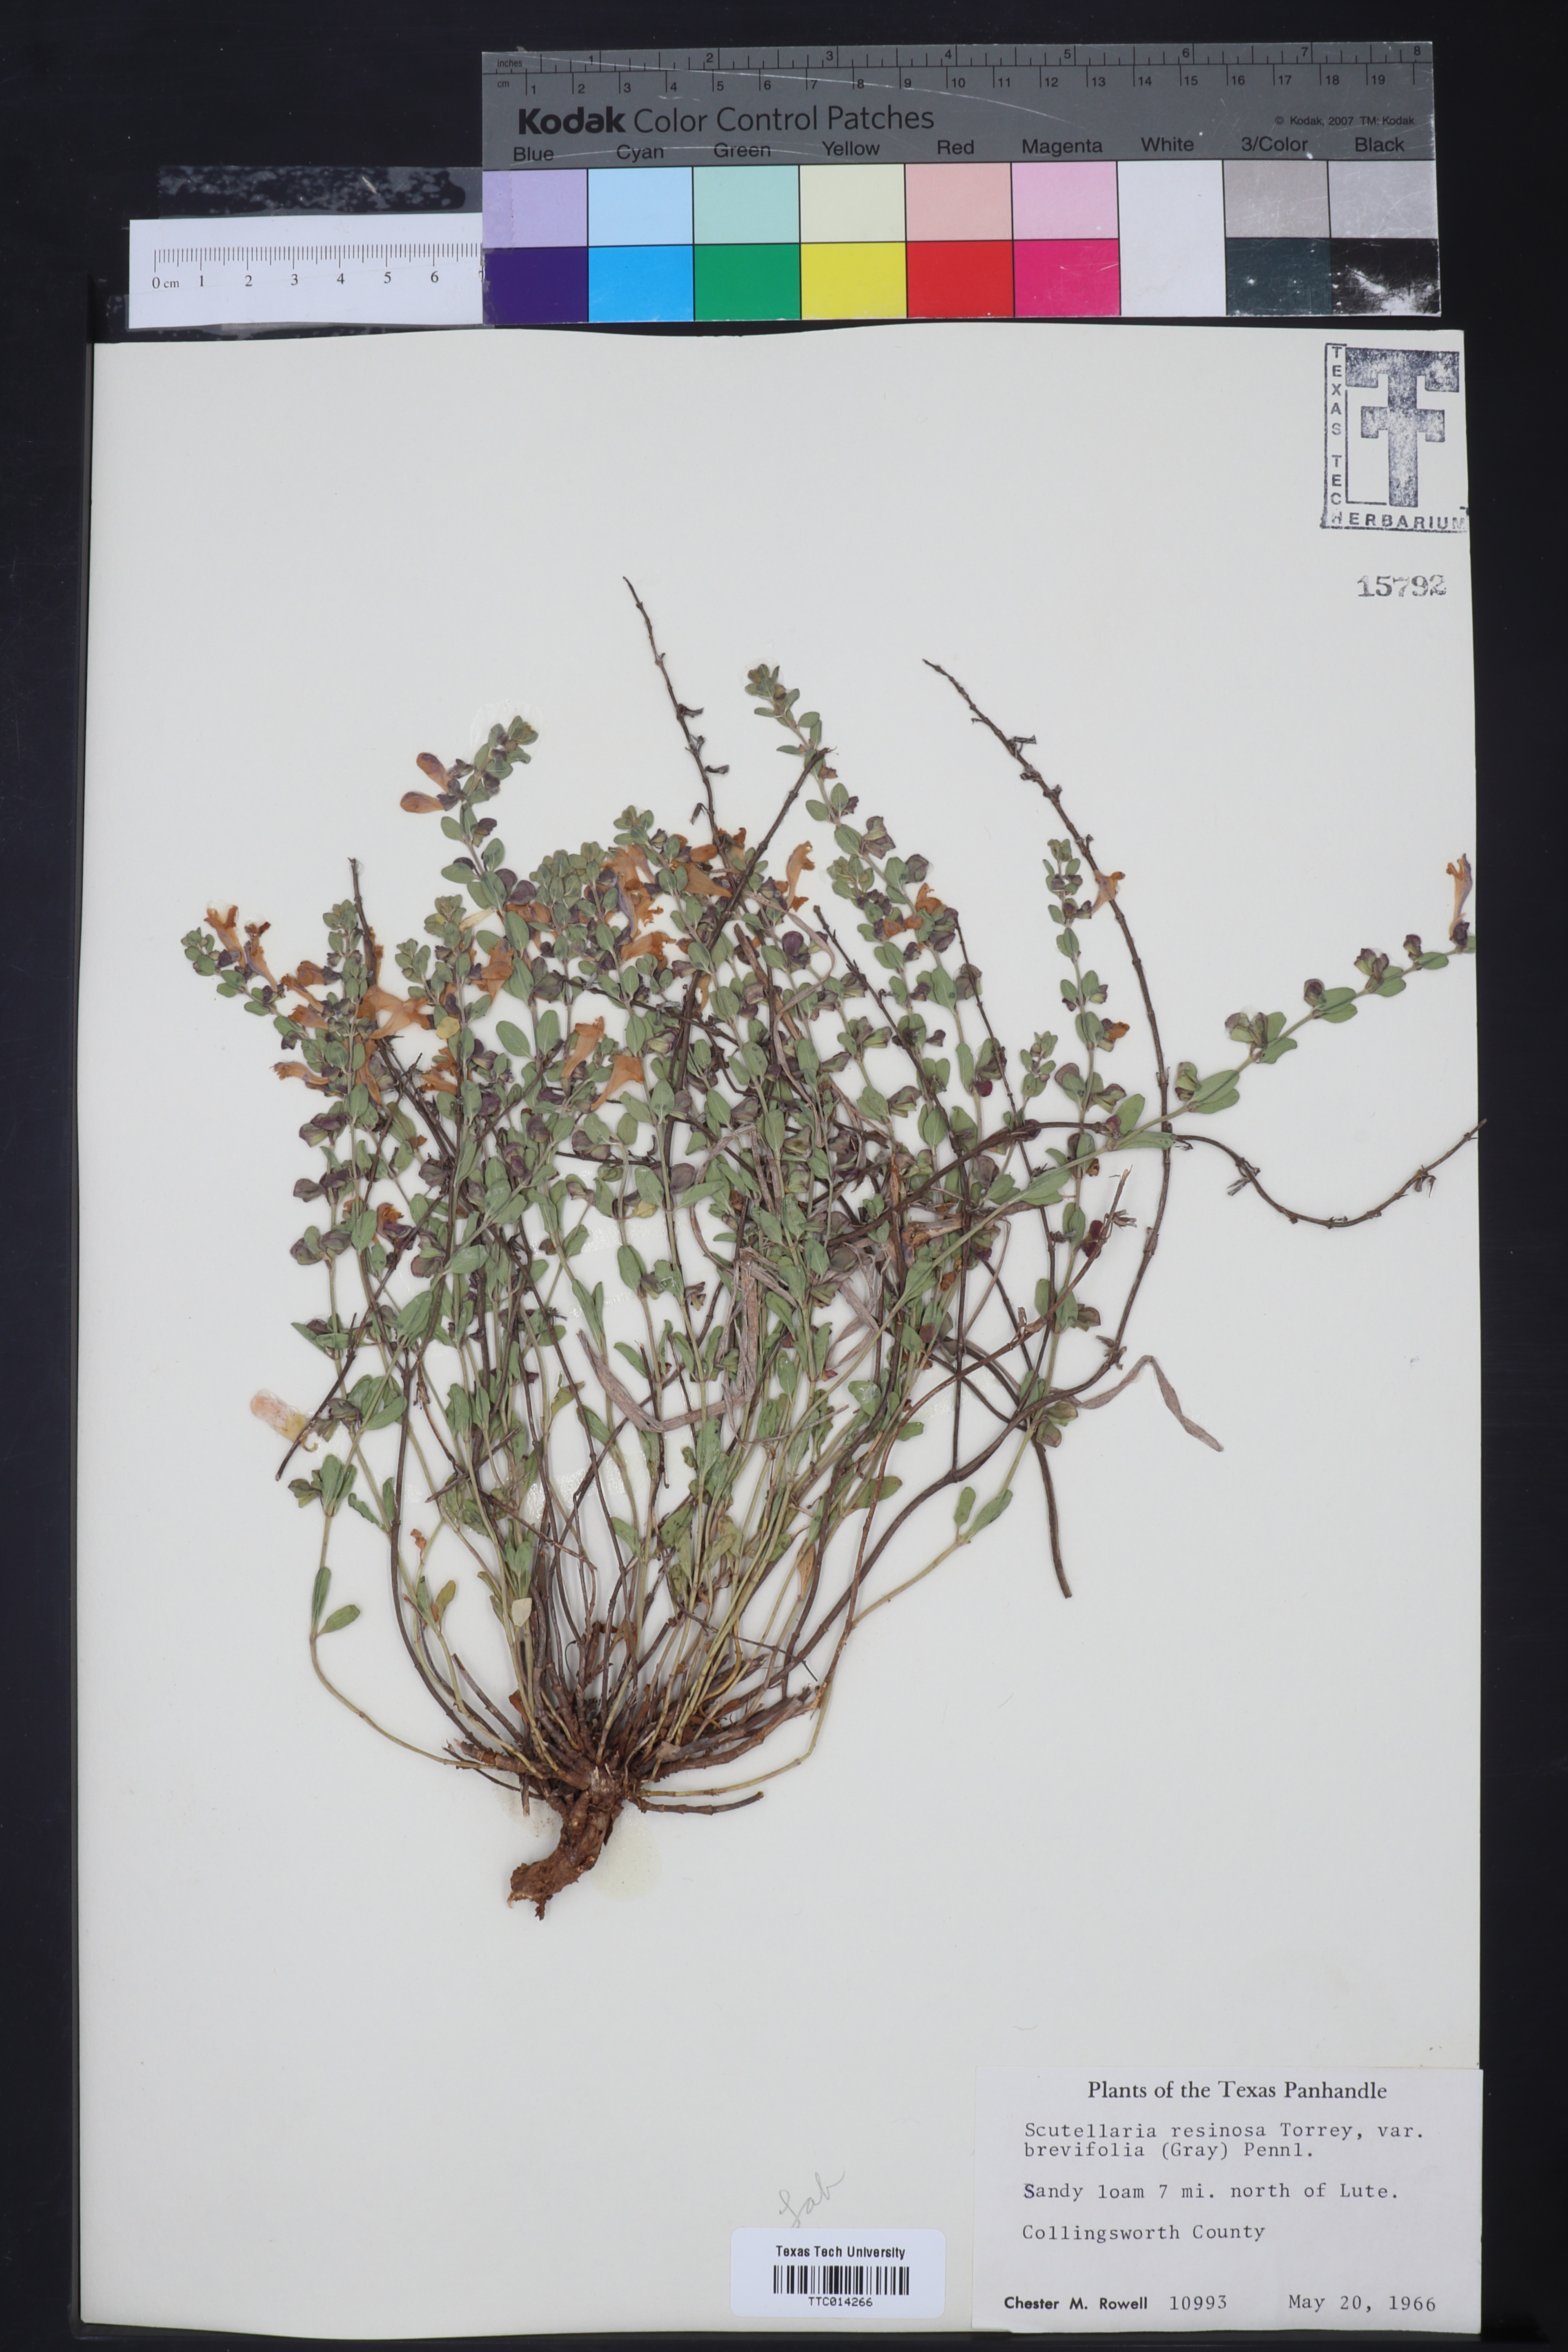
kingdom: Plantae
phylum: Tracheophyta
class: Magnoliopsida
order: Lamiales
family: Lamiaceae
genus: Scutellaria
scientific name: Scutellaria resinosa
